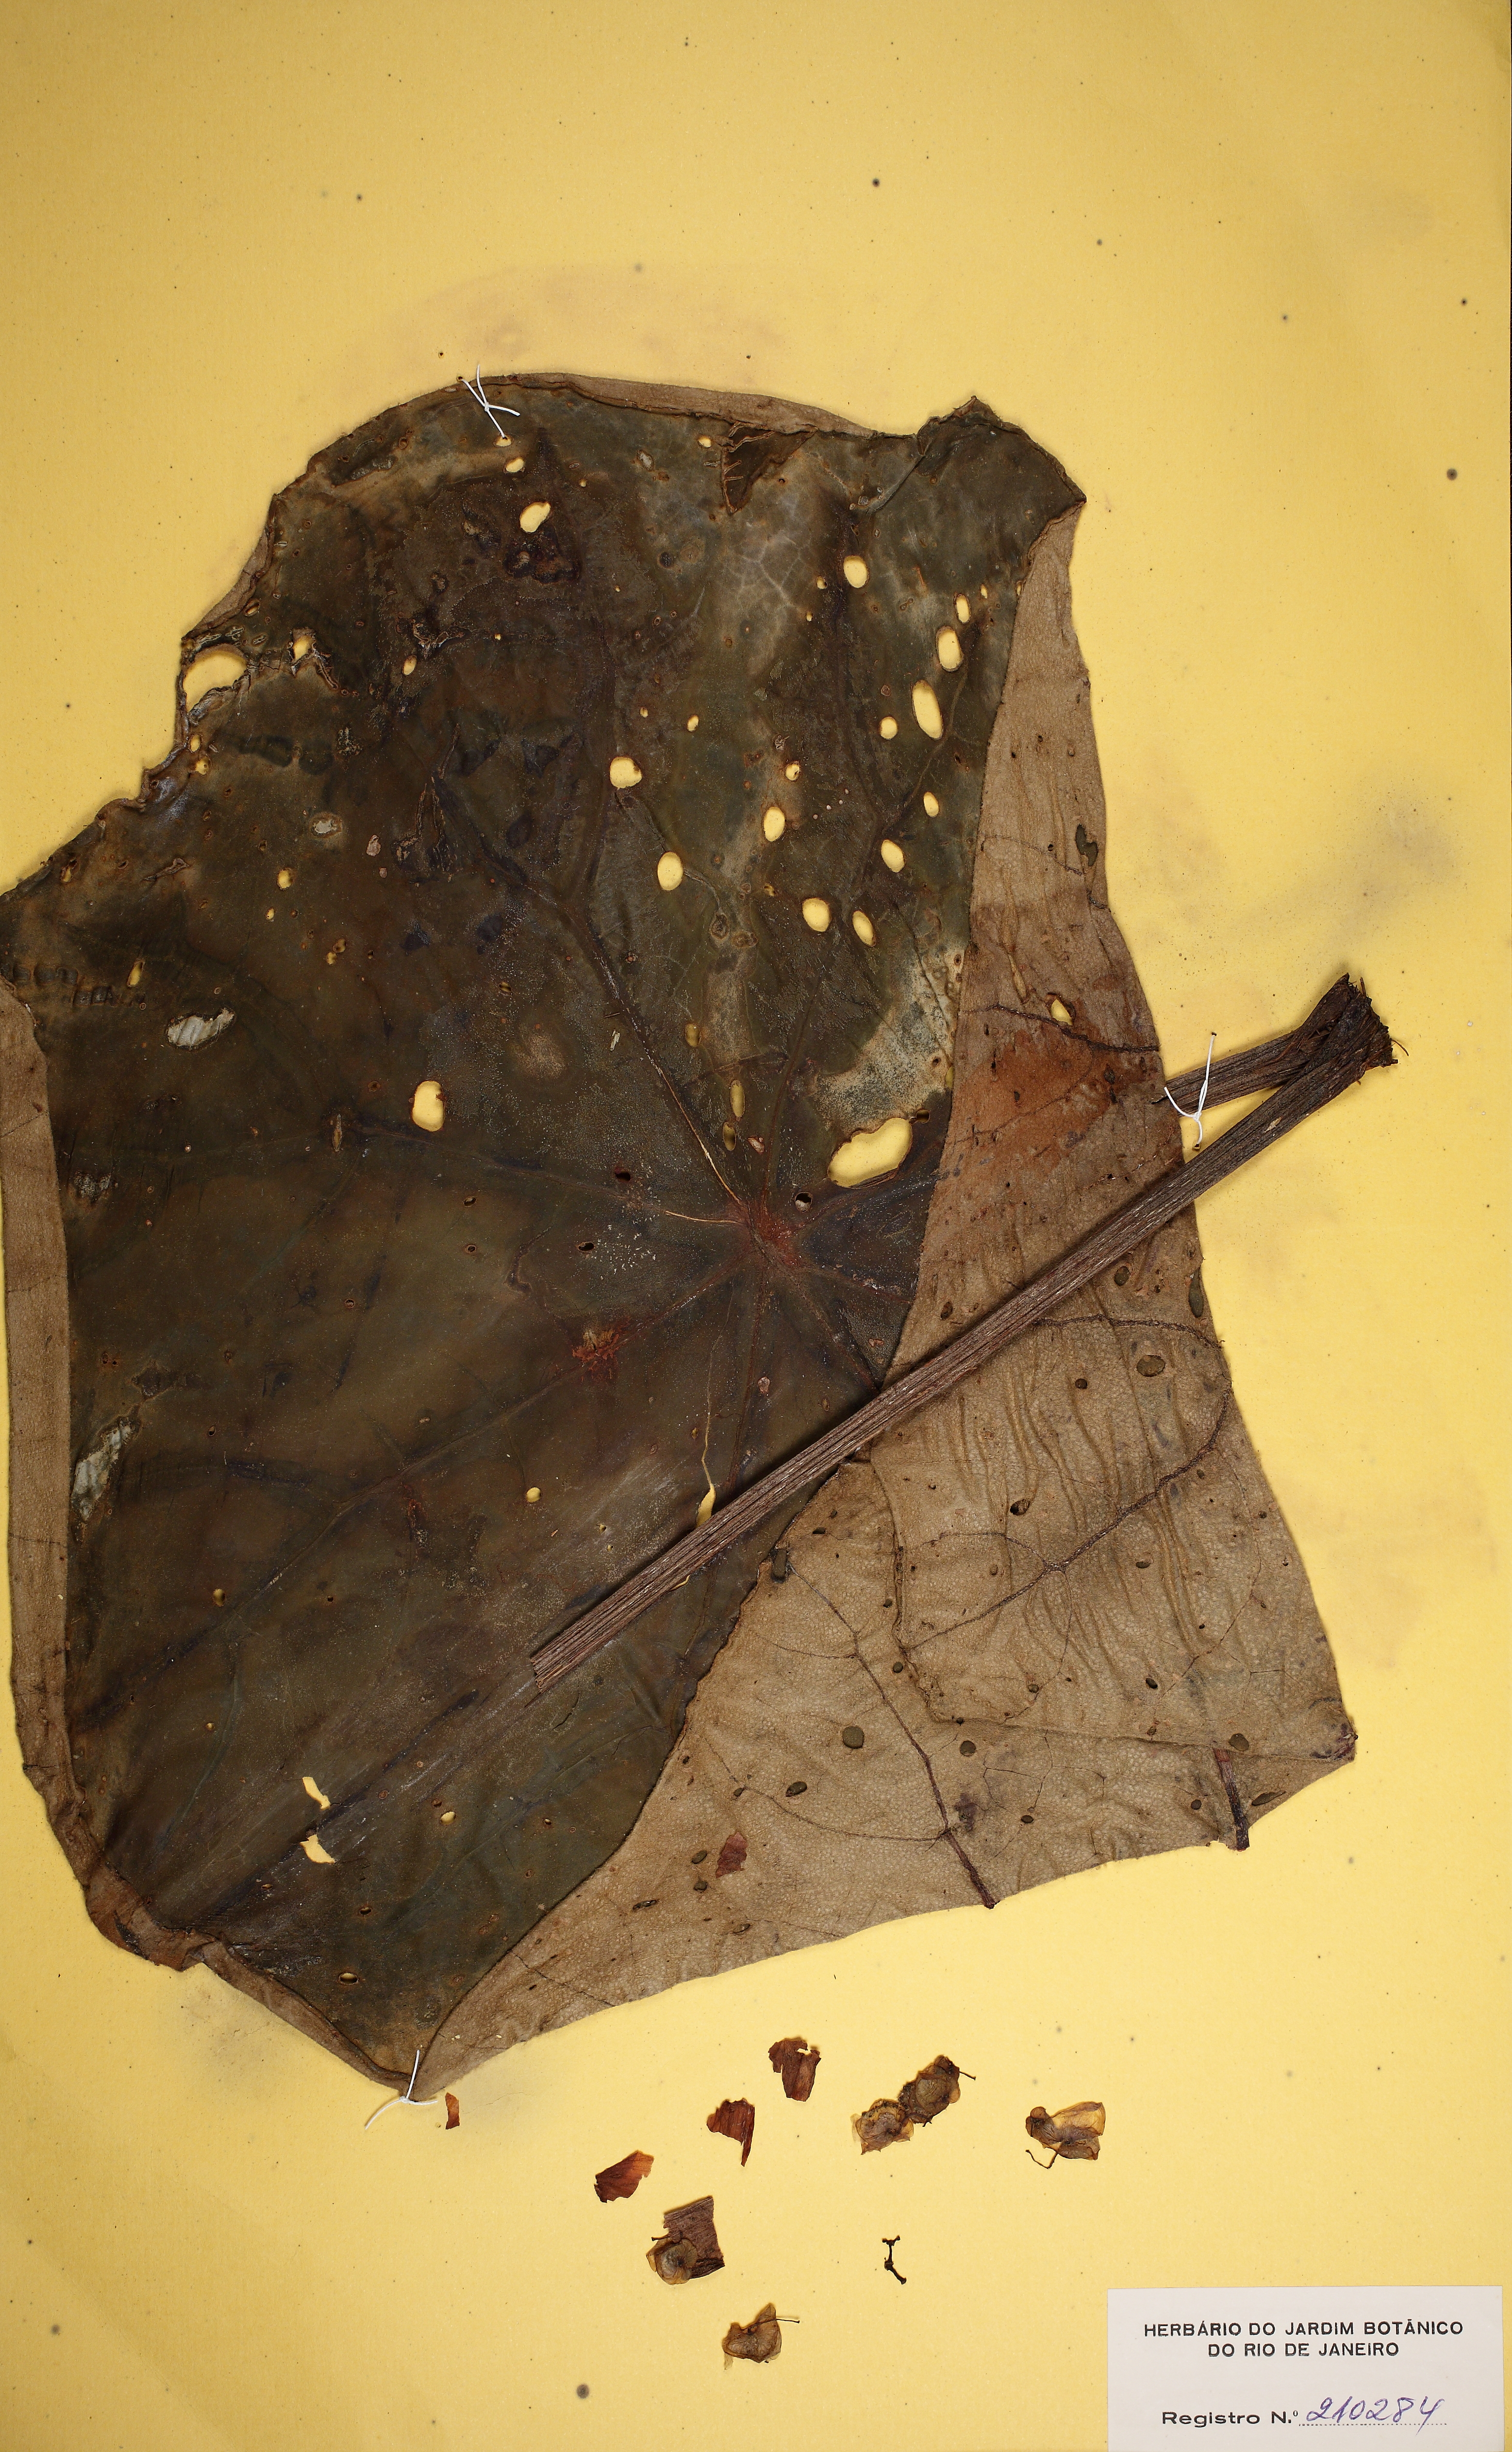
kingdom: Plantae
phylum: Tracheophyta
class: Magnoliopsida
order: Cucurbitales
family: Begoniaceae
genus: Begonia
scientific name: Begonia santos-limae
